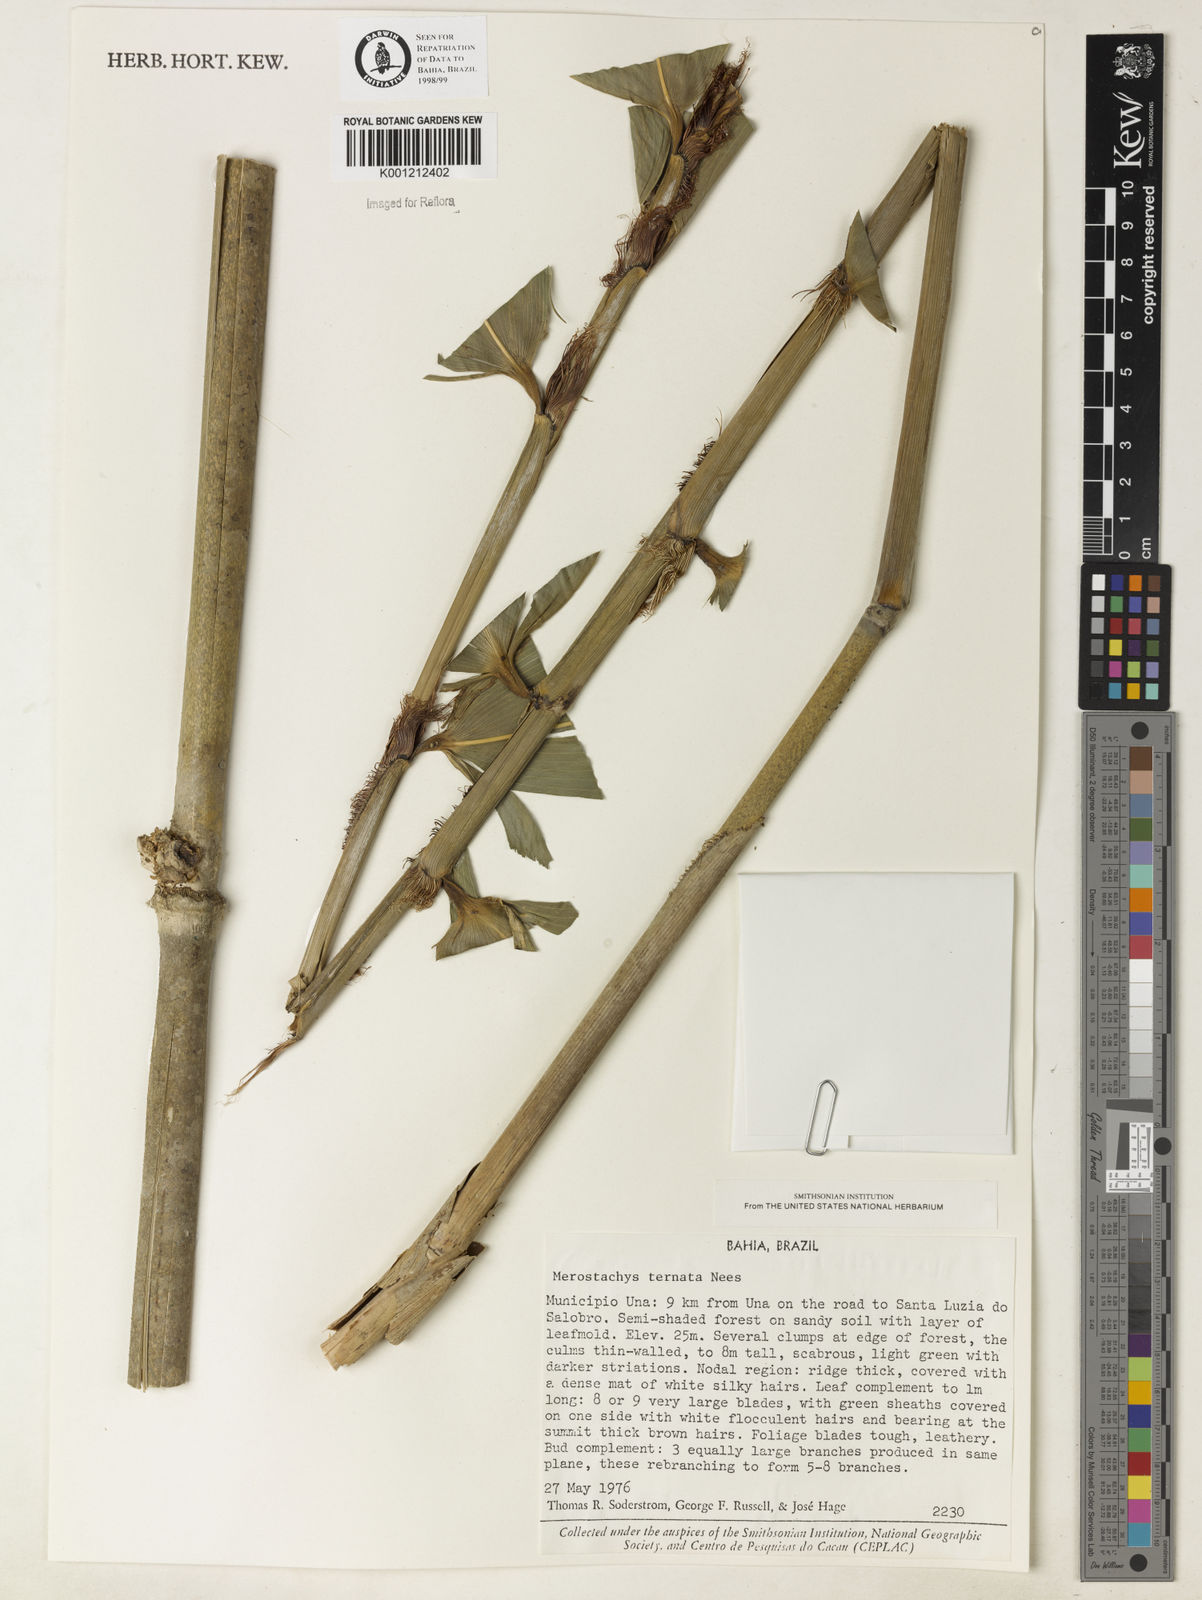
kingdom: Plantae
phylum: Tracheophyta
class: Liliopsida
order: Poales
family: Poaceae
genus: Merostachys
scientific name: Merostachys ternata
